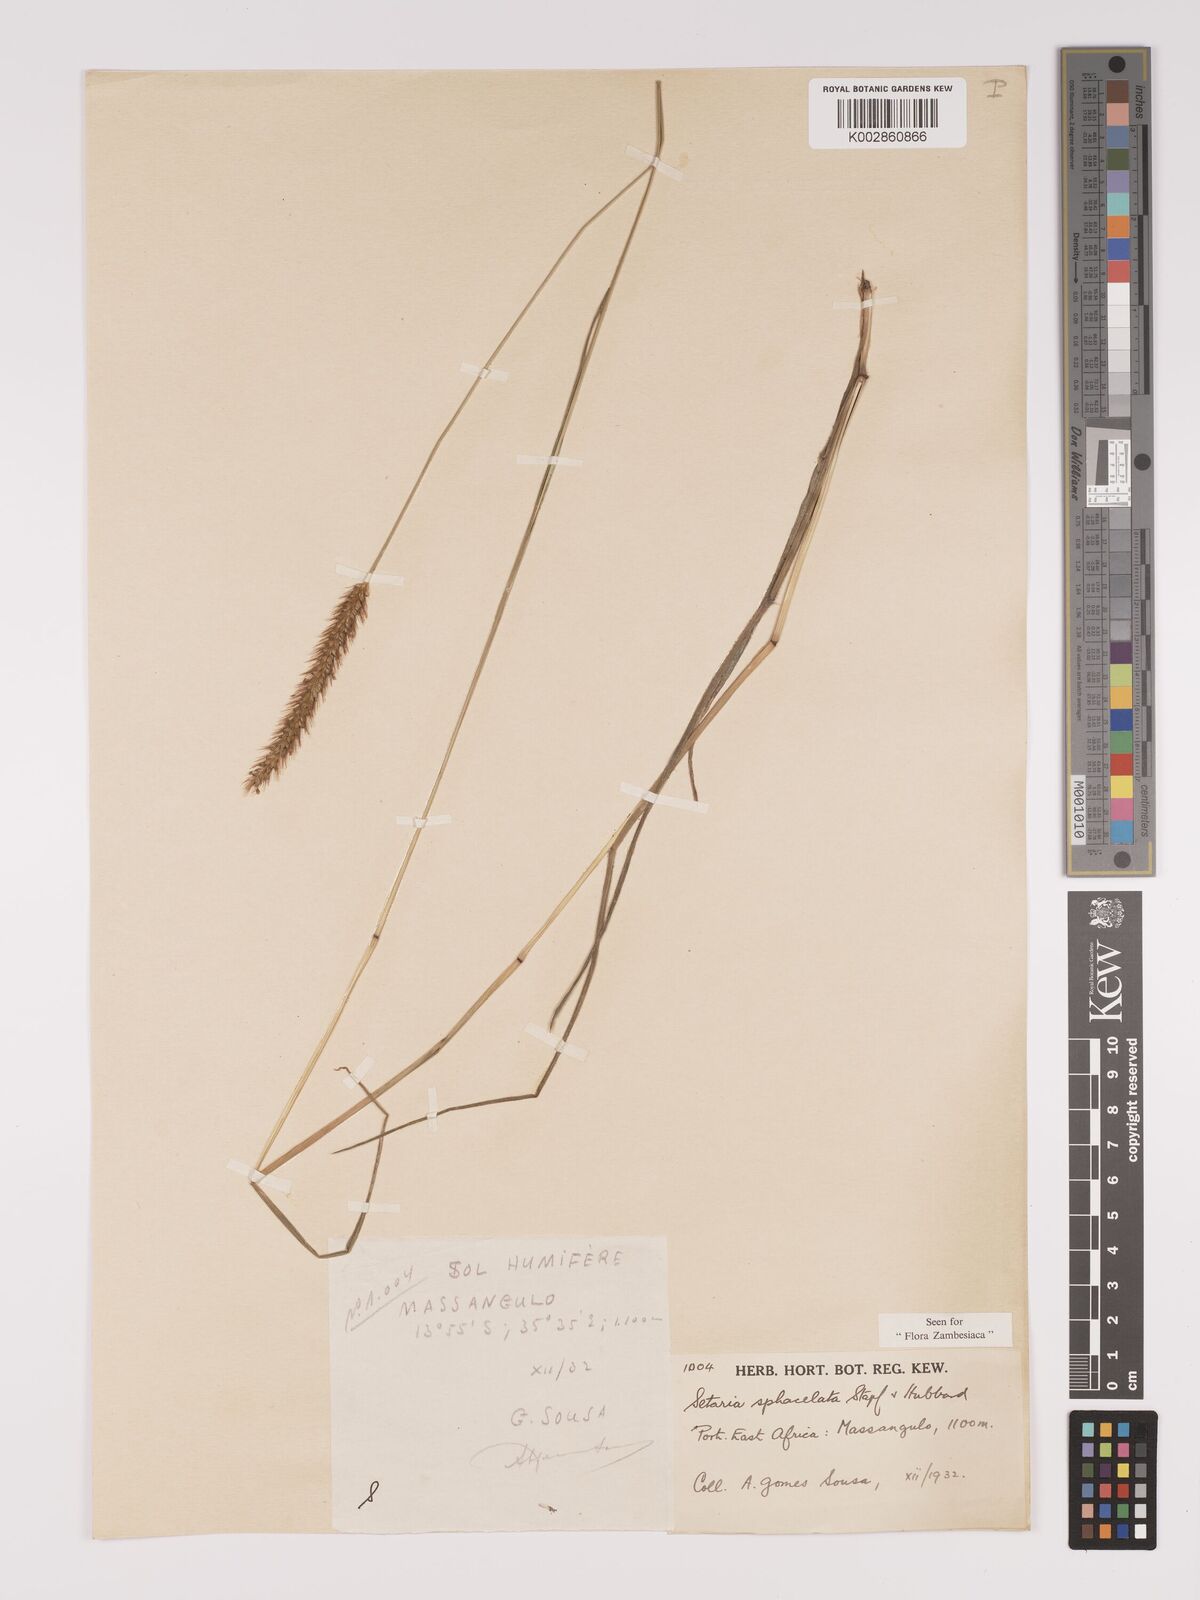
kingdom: Plantae
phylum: Tracheophyta
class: Liliopsida
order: Poales
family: Poaceae
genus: Setaria
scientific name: Setaria sphacelata
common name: African bristlegrass
